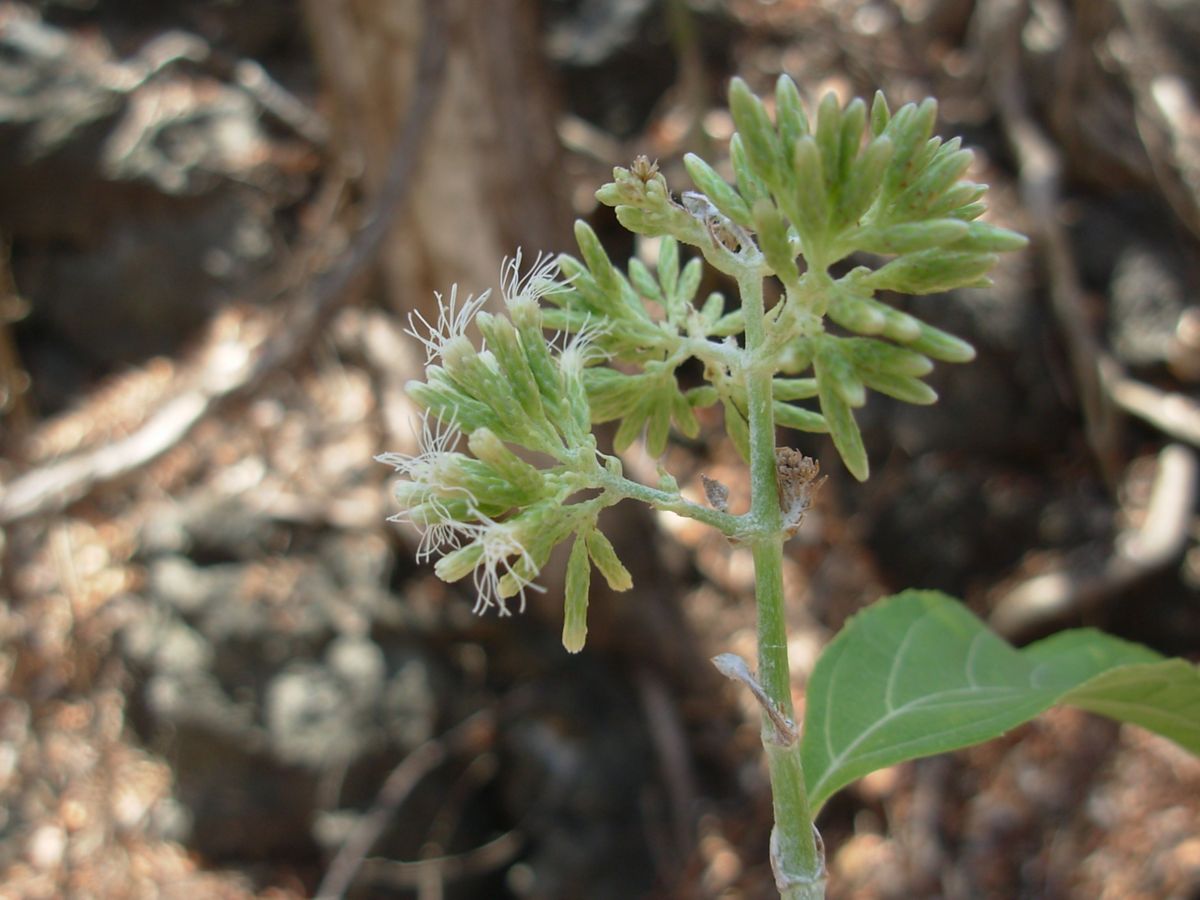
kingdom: Plantae
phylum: Tracheophyta
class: Magnoliopsida
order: Asterales
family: Asteraceae
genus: Critonia
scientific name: Critonia morifolia
